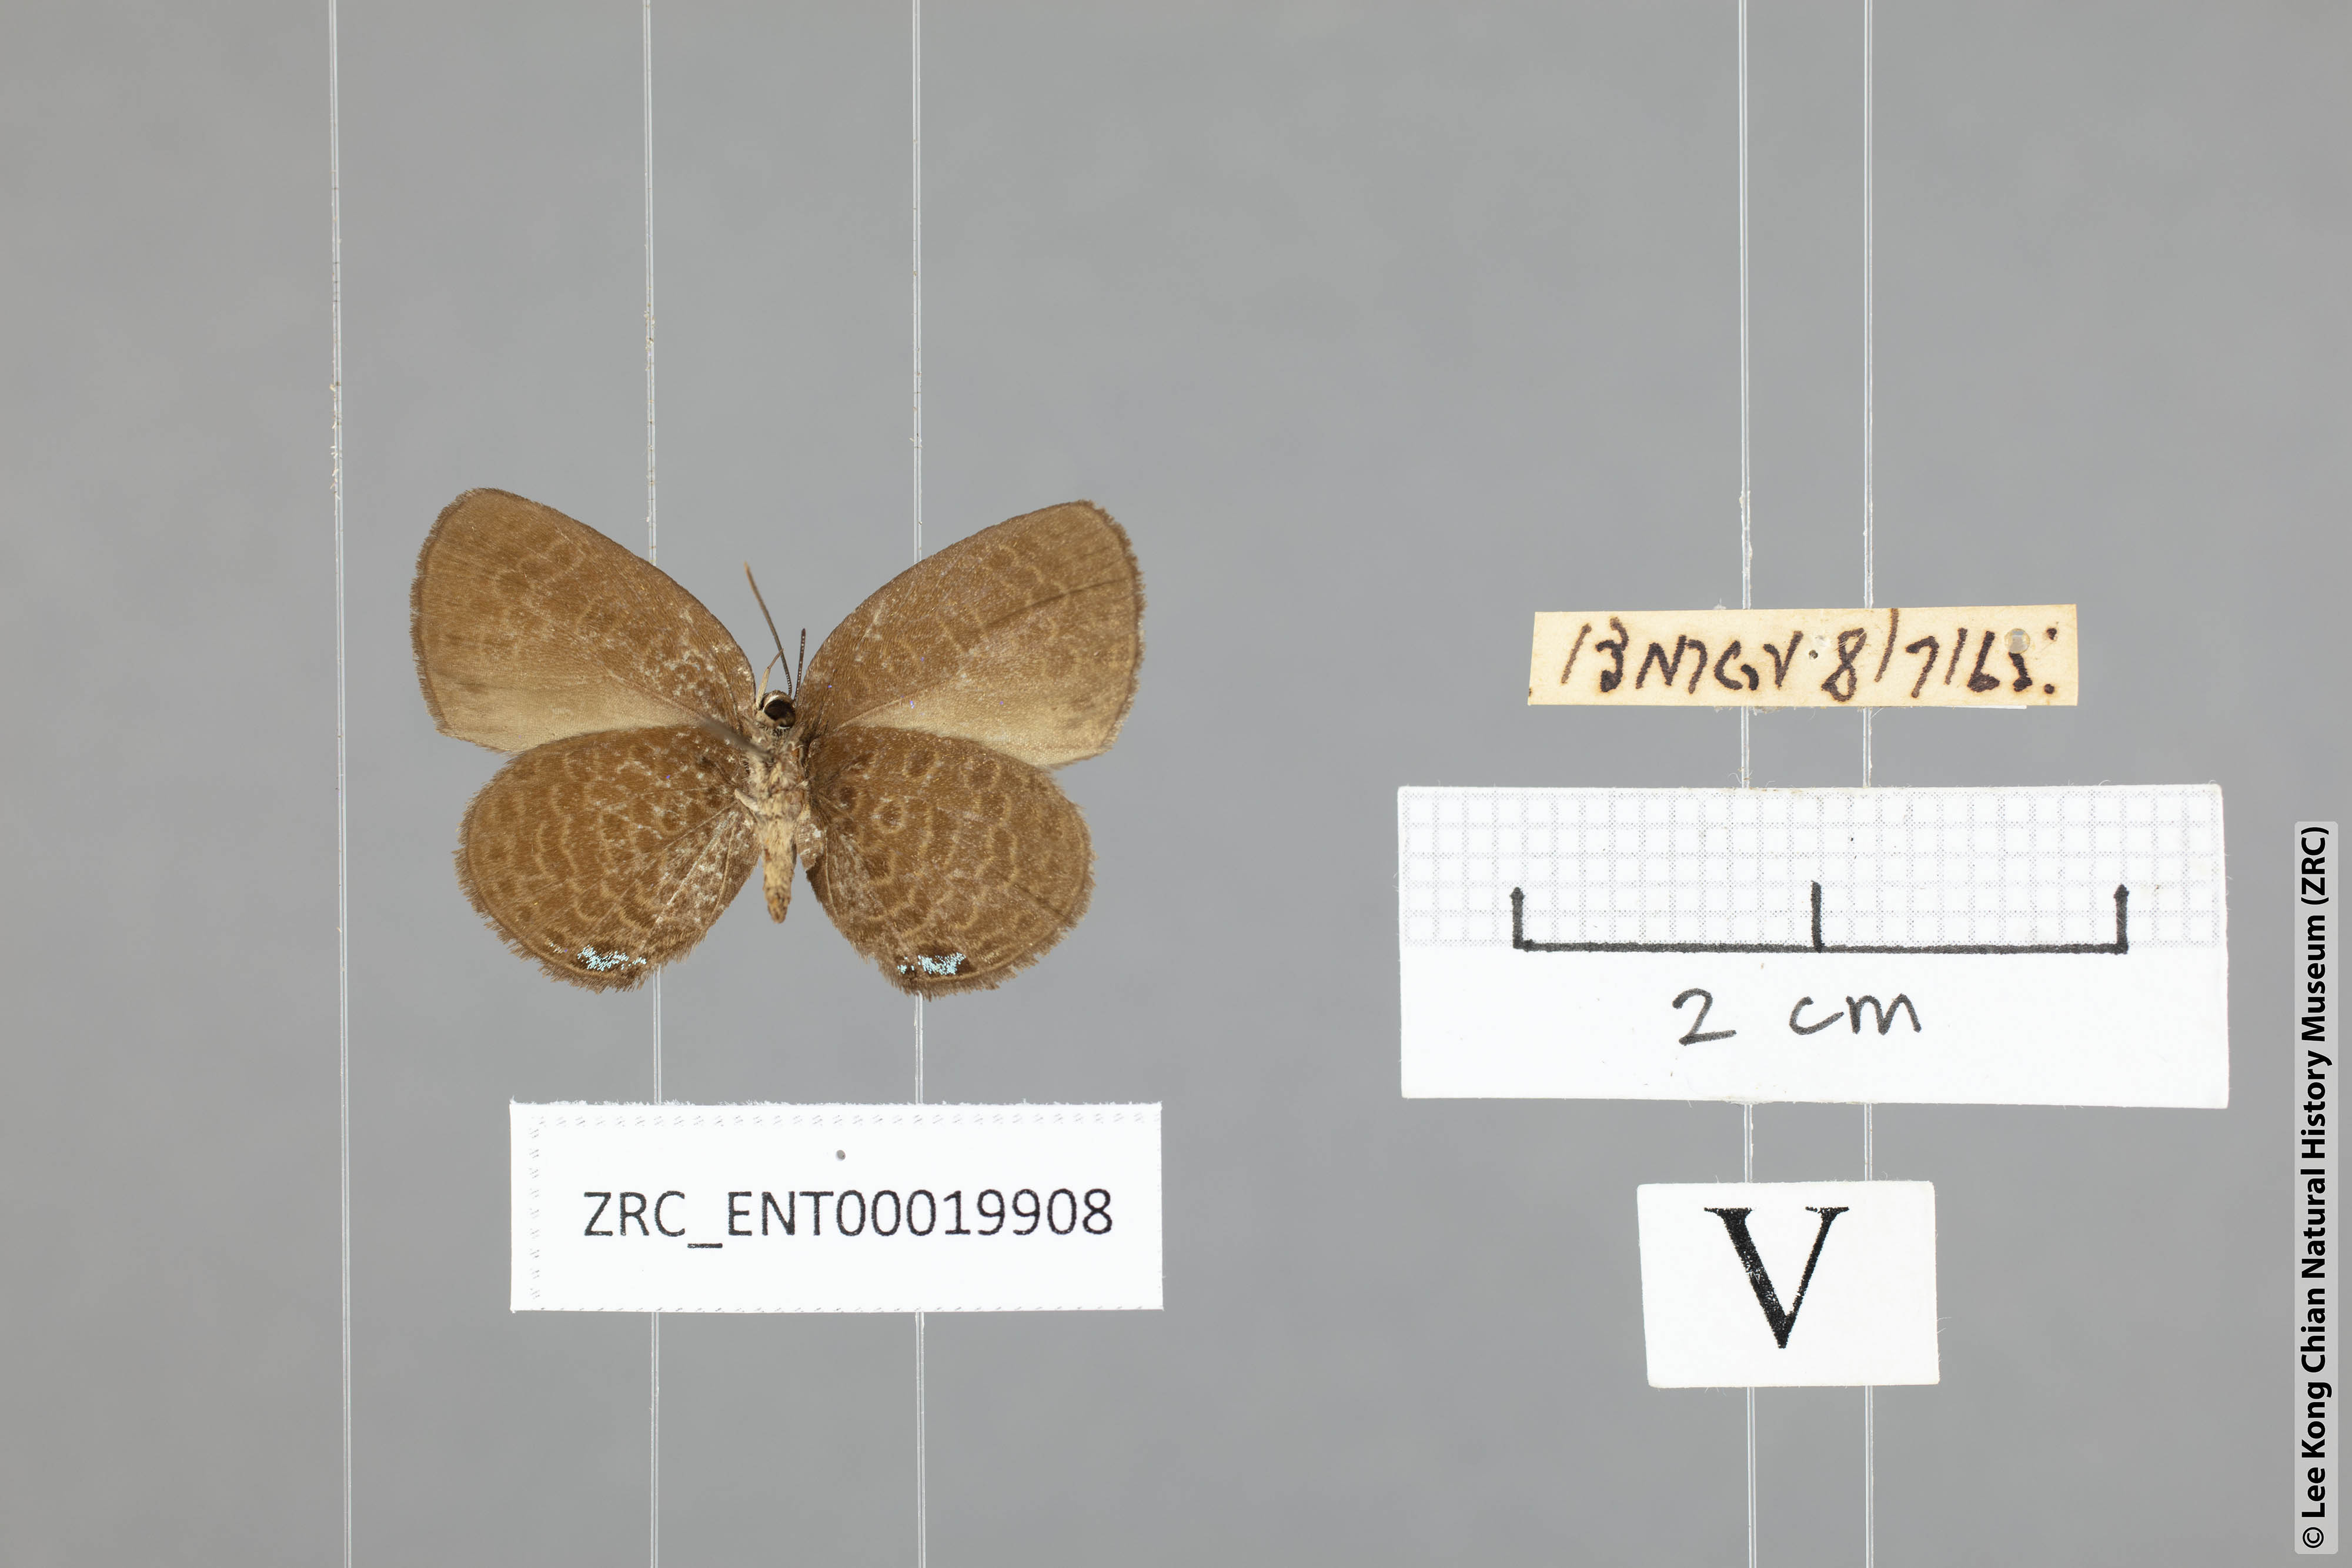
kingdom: Animalia
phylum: Arthropoda
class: Insecta
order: Lepidoptera
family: Lycaenidae
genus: Arhopala
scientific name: Arhopala tropaea
